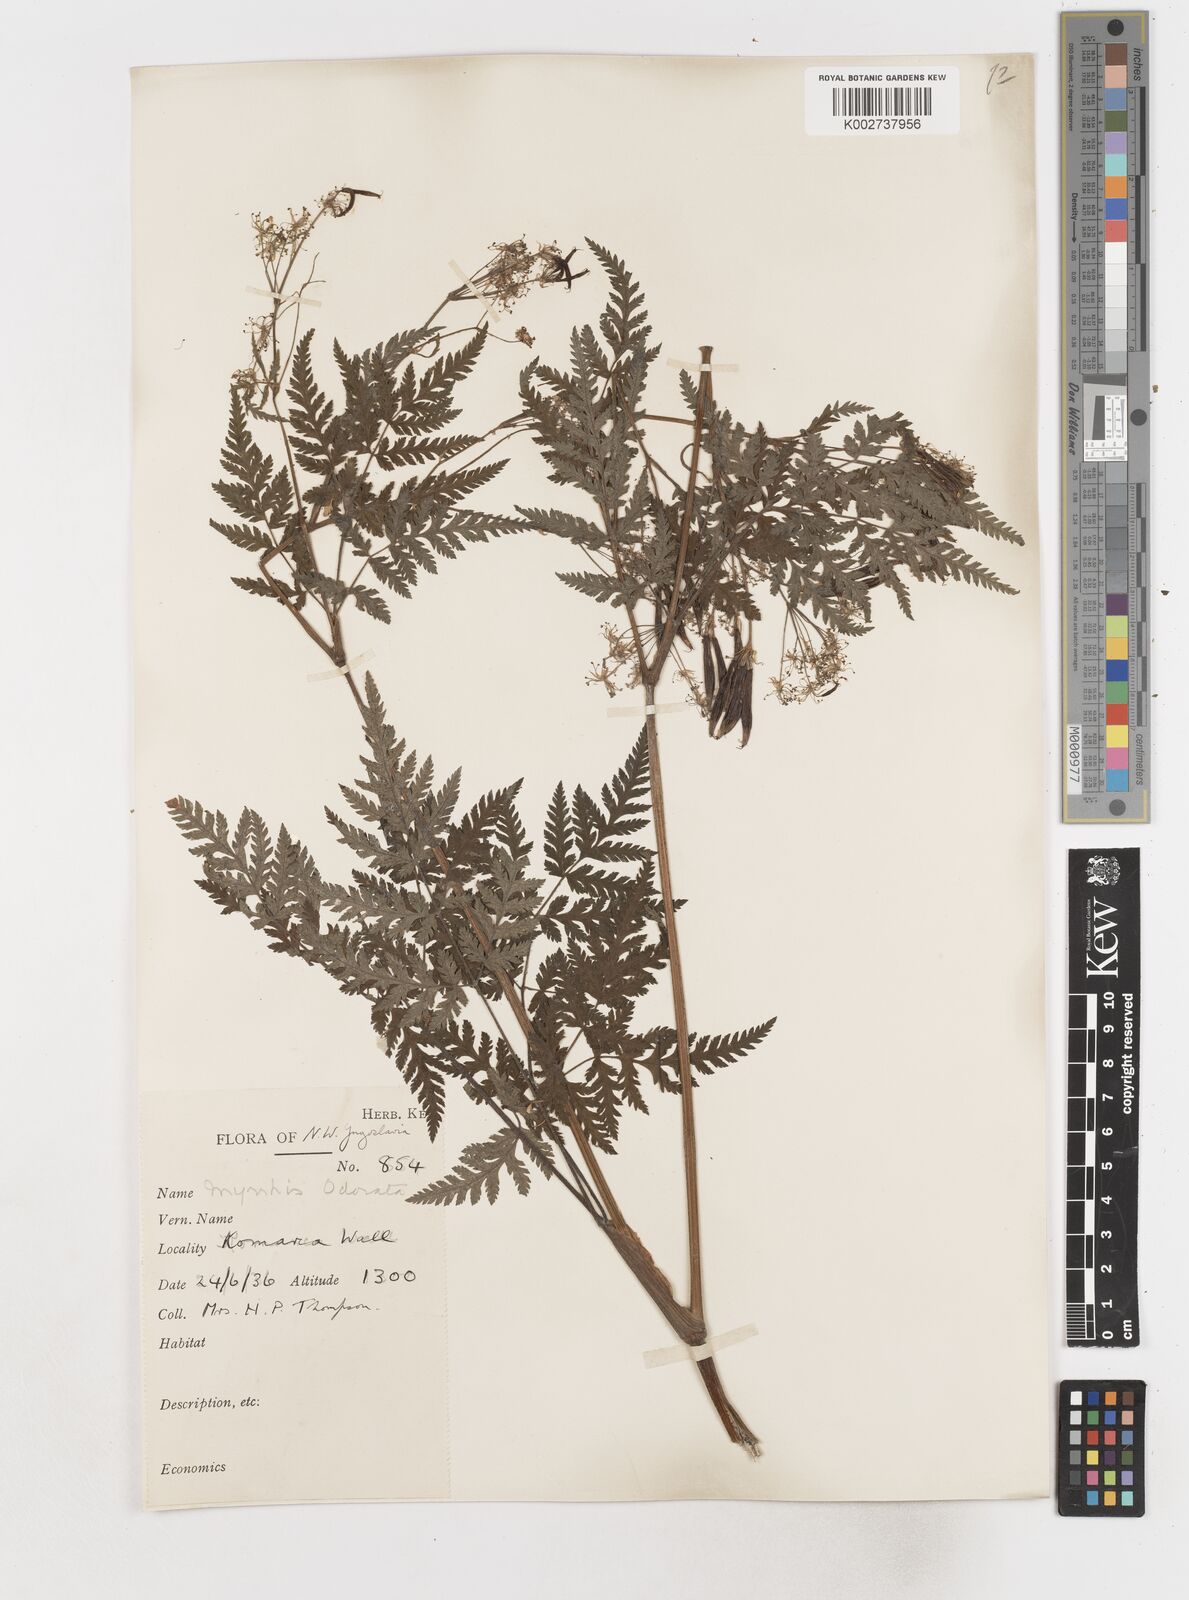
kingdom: Plantae
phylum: Tracheophyta
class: Magnoliopsida
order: Apiales
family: Apiaceae
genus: Myrrhis
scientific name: Myrrhis odorata
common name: Sweet cicely
